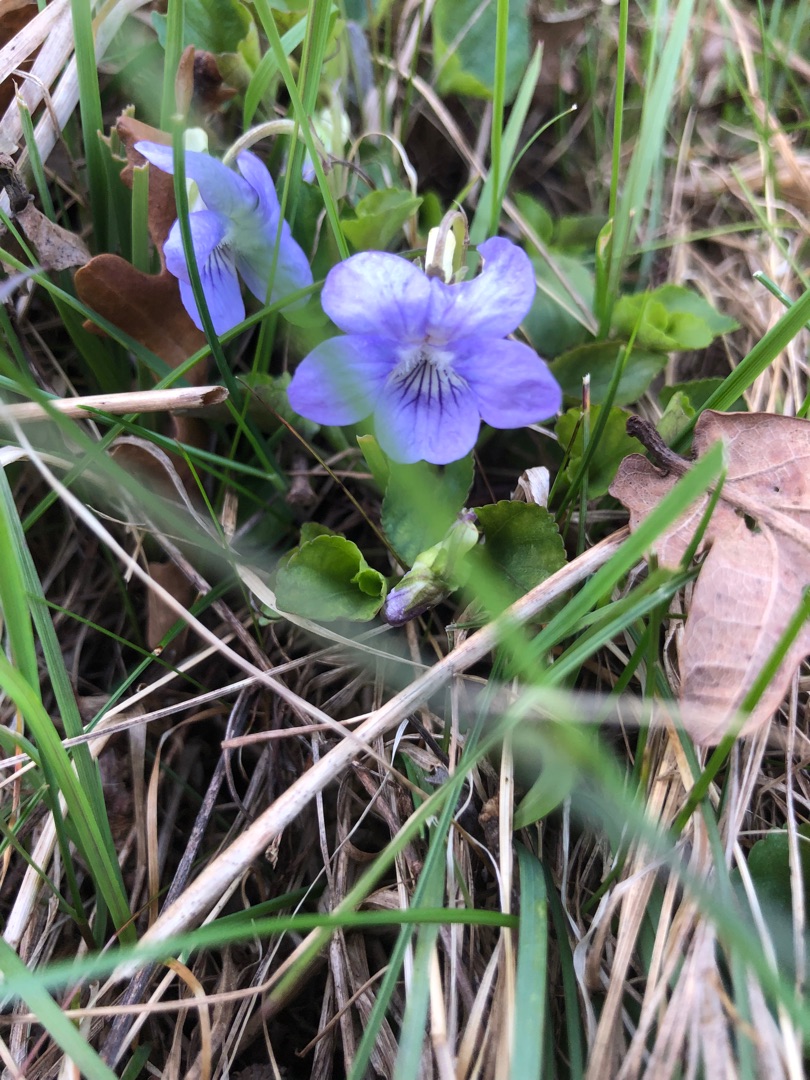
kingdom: Plantae
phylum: Tracheophyta
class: Magnoliopsida
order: Malpighiales
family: Violaceae
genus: Viola
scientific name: Viola riviniana
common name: Krat-viol
